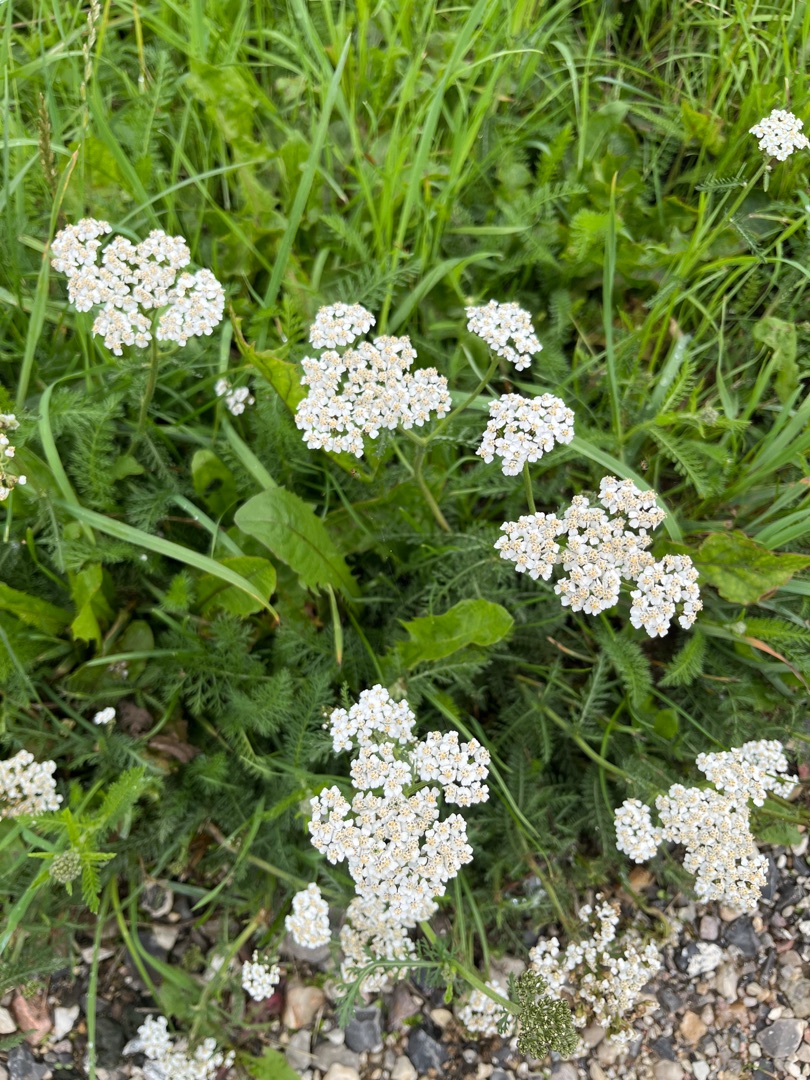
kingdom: Plantae
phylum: Tracheophyta
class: Magnoliopsida
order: Asterales
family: Asteraceae
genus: Achillea
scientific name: Achillea millefolium
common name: Almindelig røllike
